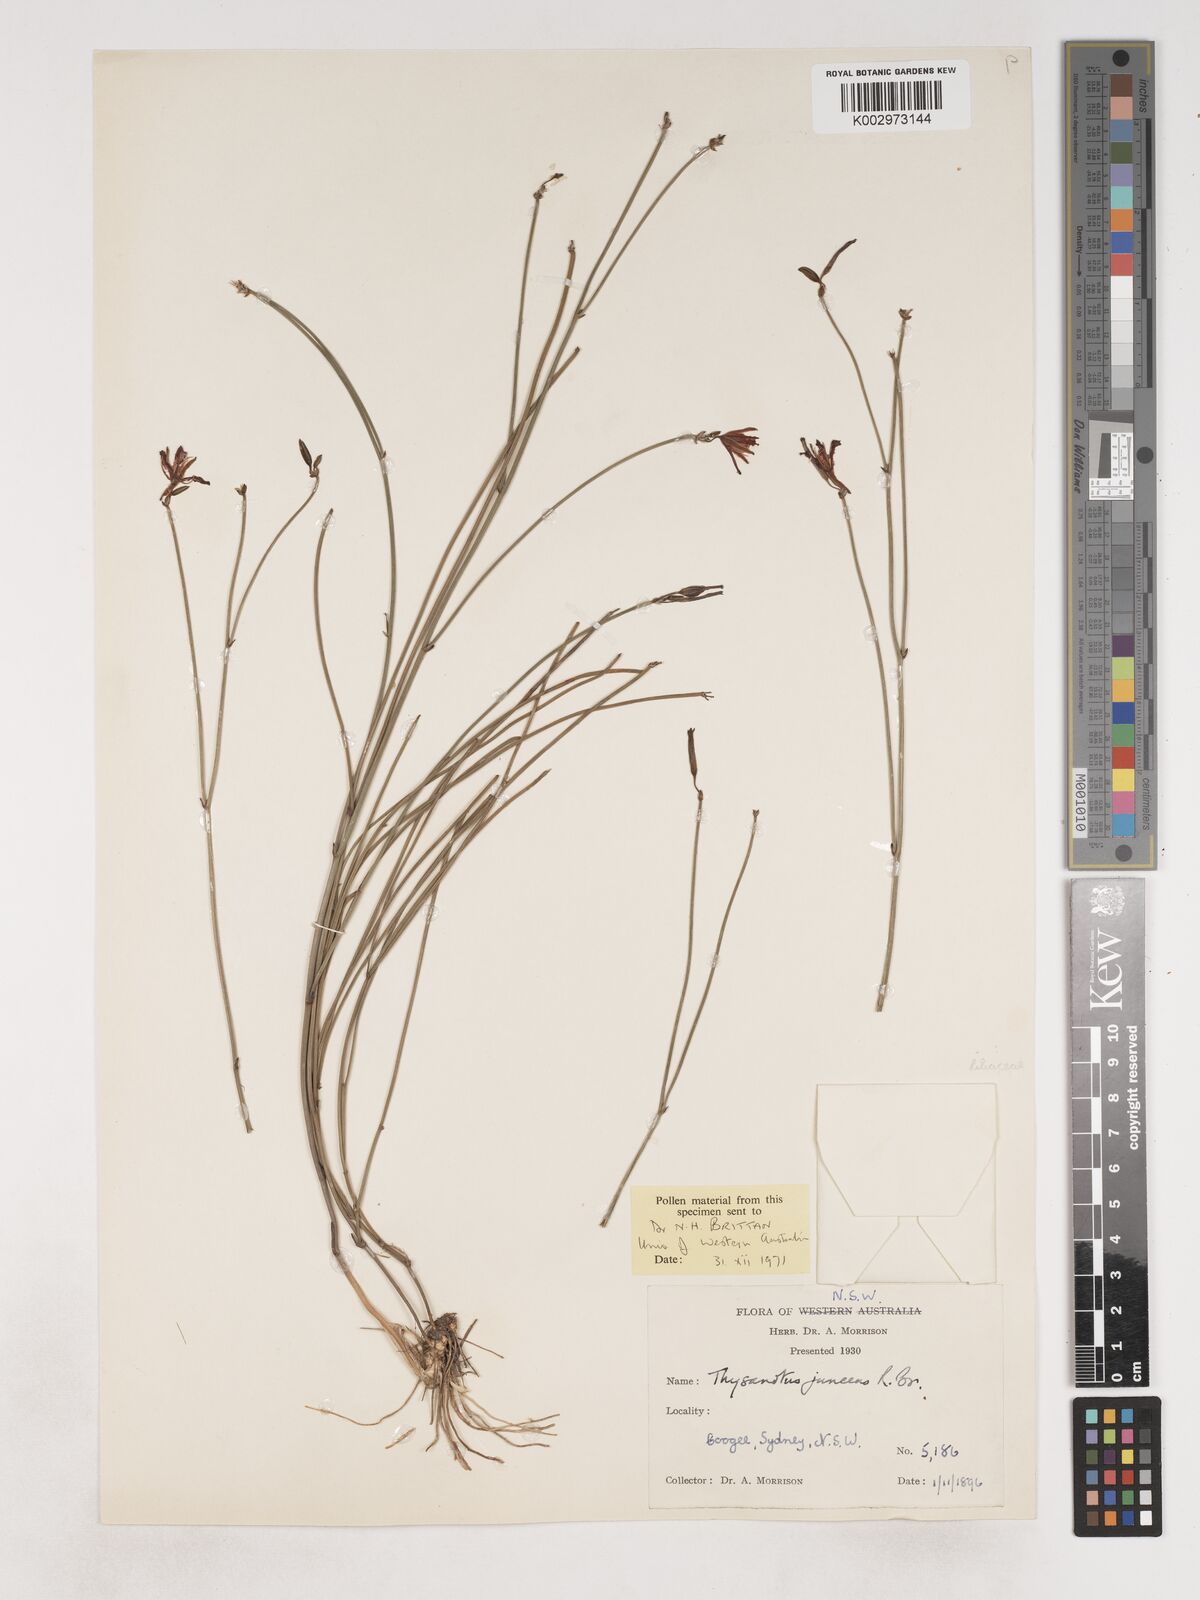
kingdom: Plantae
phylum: Tracheophyta
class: Liliopsida
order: Asparagales
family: Asparagaceae
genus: Thysanotus
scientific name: Thysanotus juncifolius
